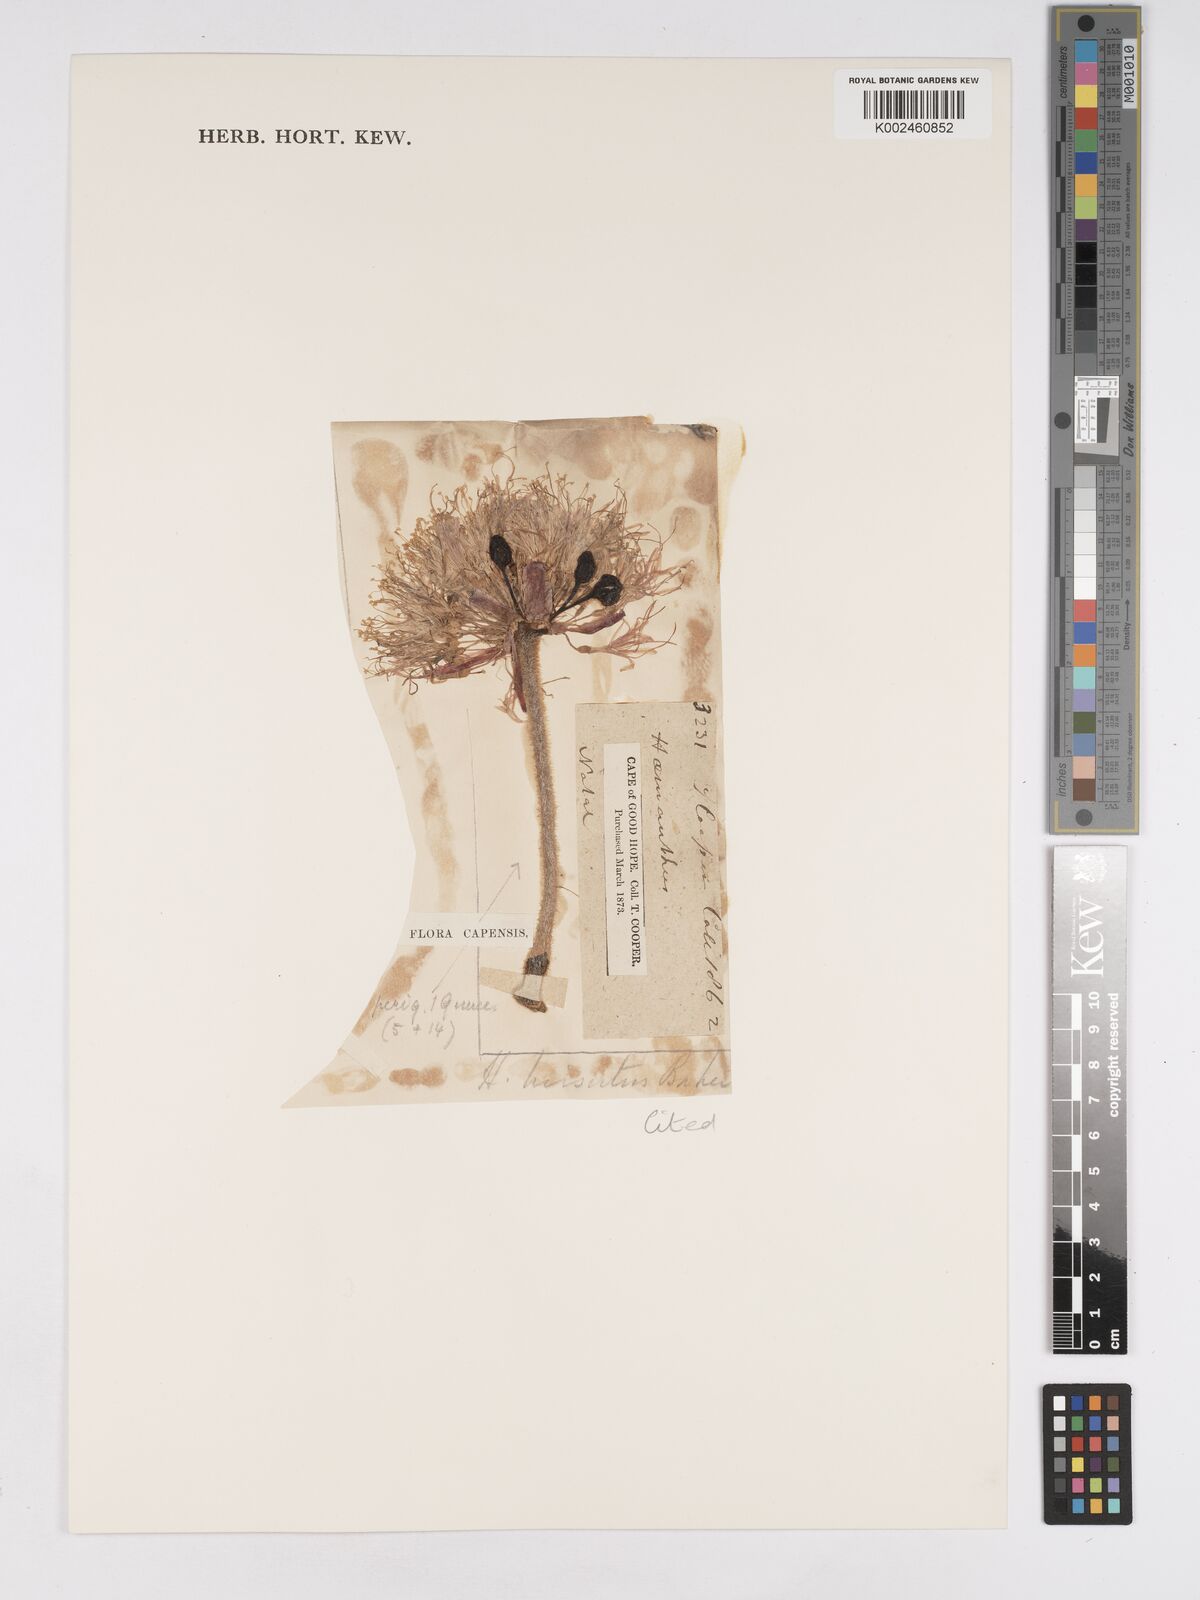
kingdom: Plantae
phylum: Tracheophyta
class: Liliopsida
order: Asparagales
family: Amaryllidaceae
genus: Haemanthus
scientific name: Haemanthus humilis
